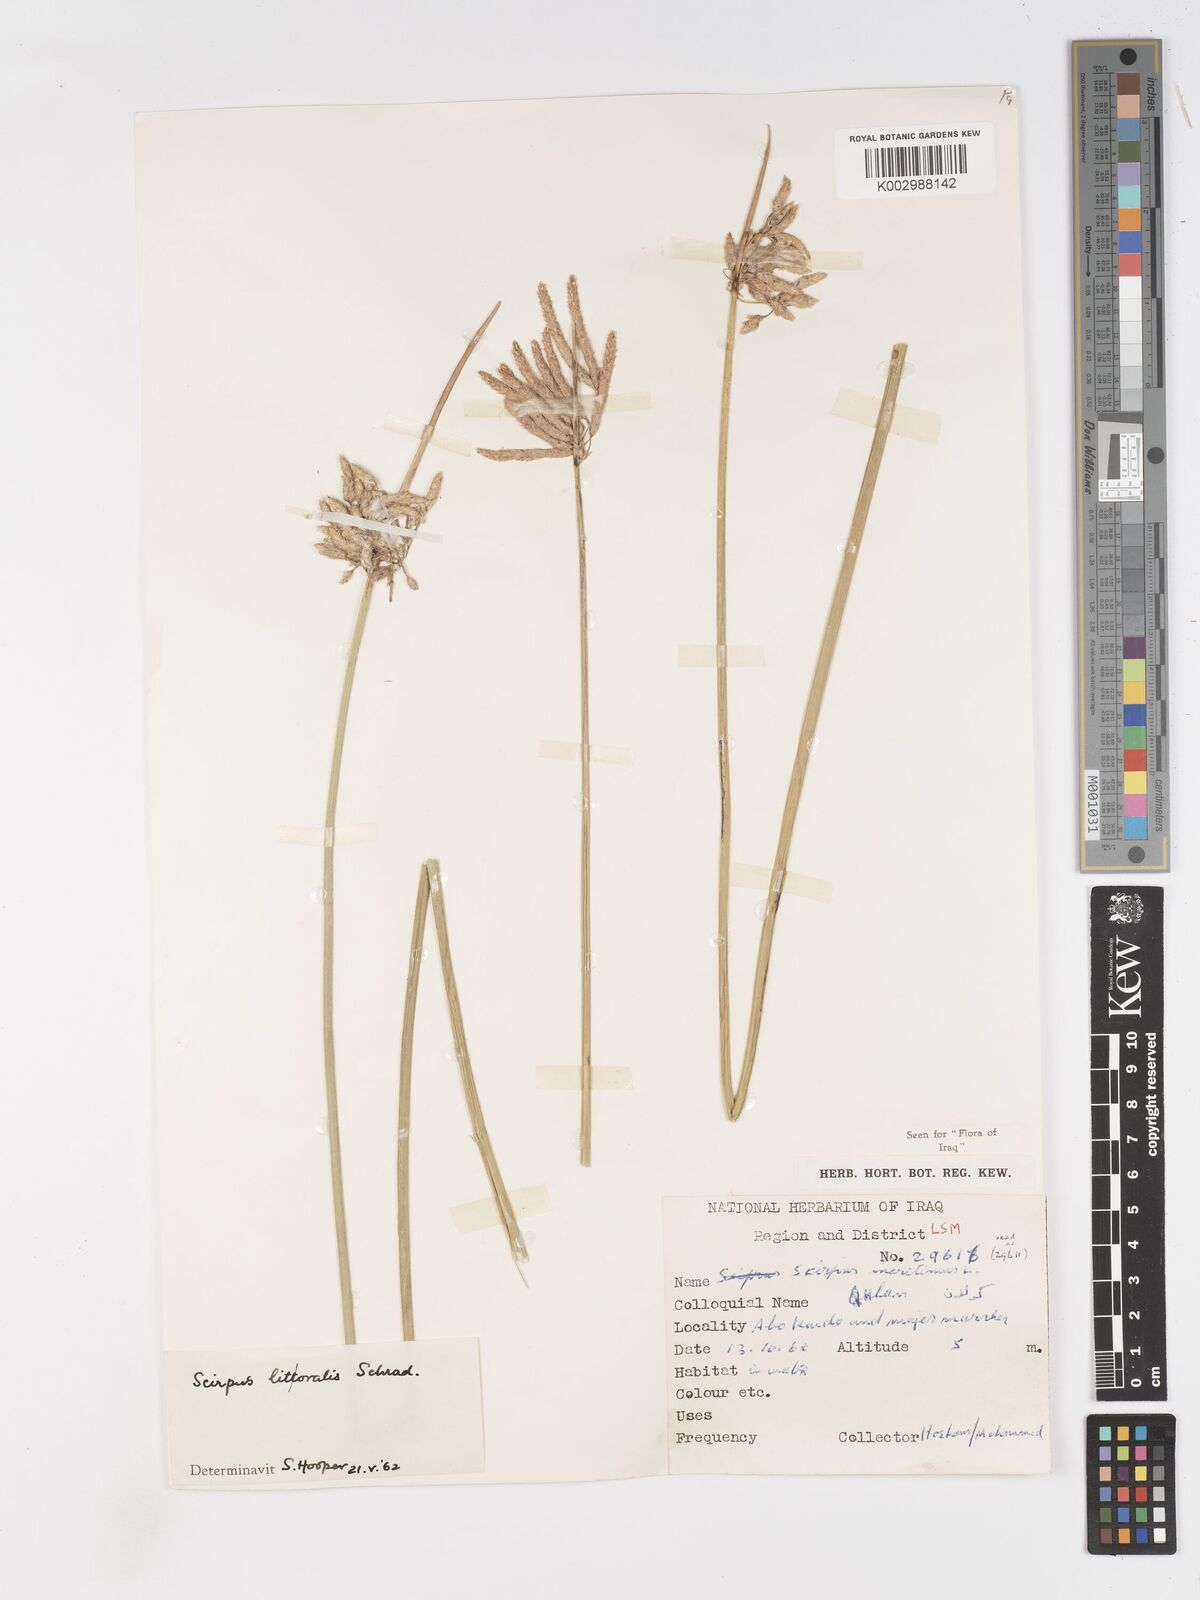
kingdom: Plantae
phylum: Tracheophyta
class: Liliopsida
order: Poales
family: Cyperaceae
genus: Schoenoplectus
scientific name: Schoenoplectus litoralis
